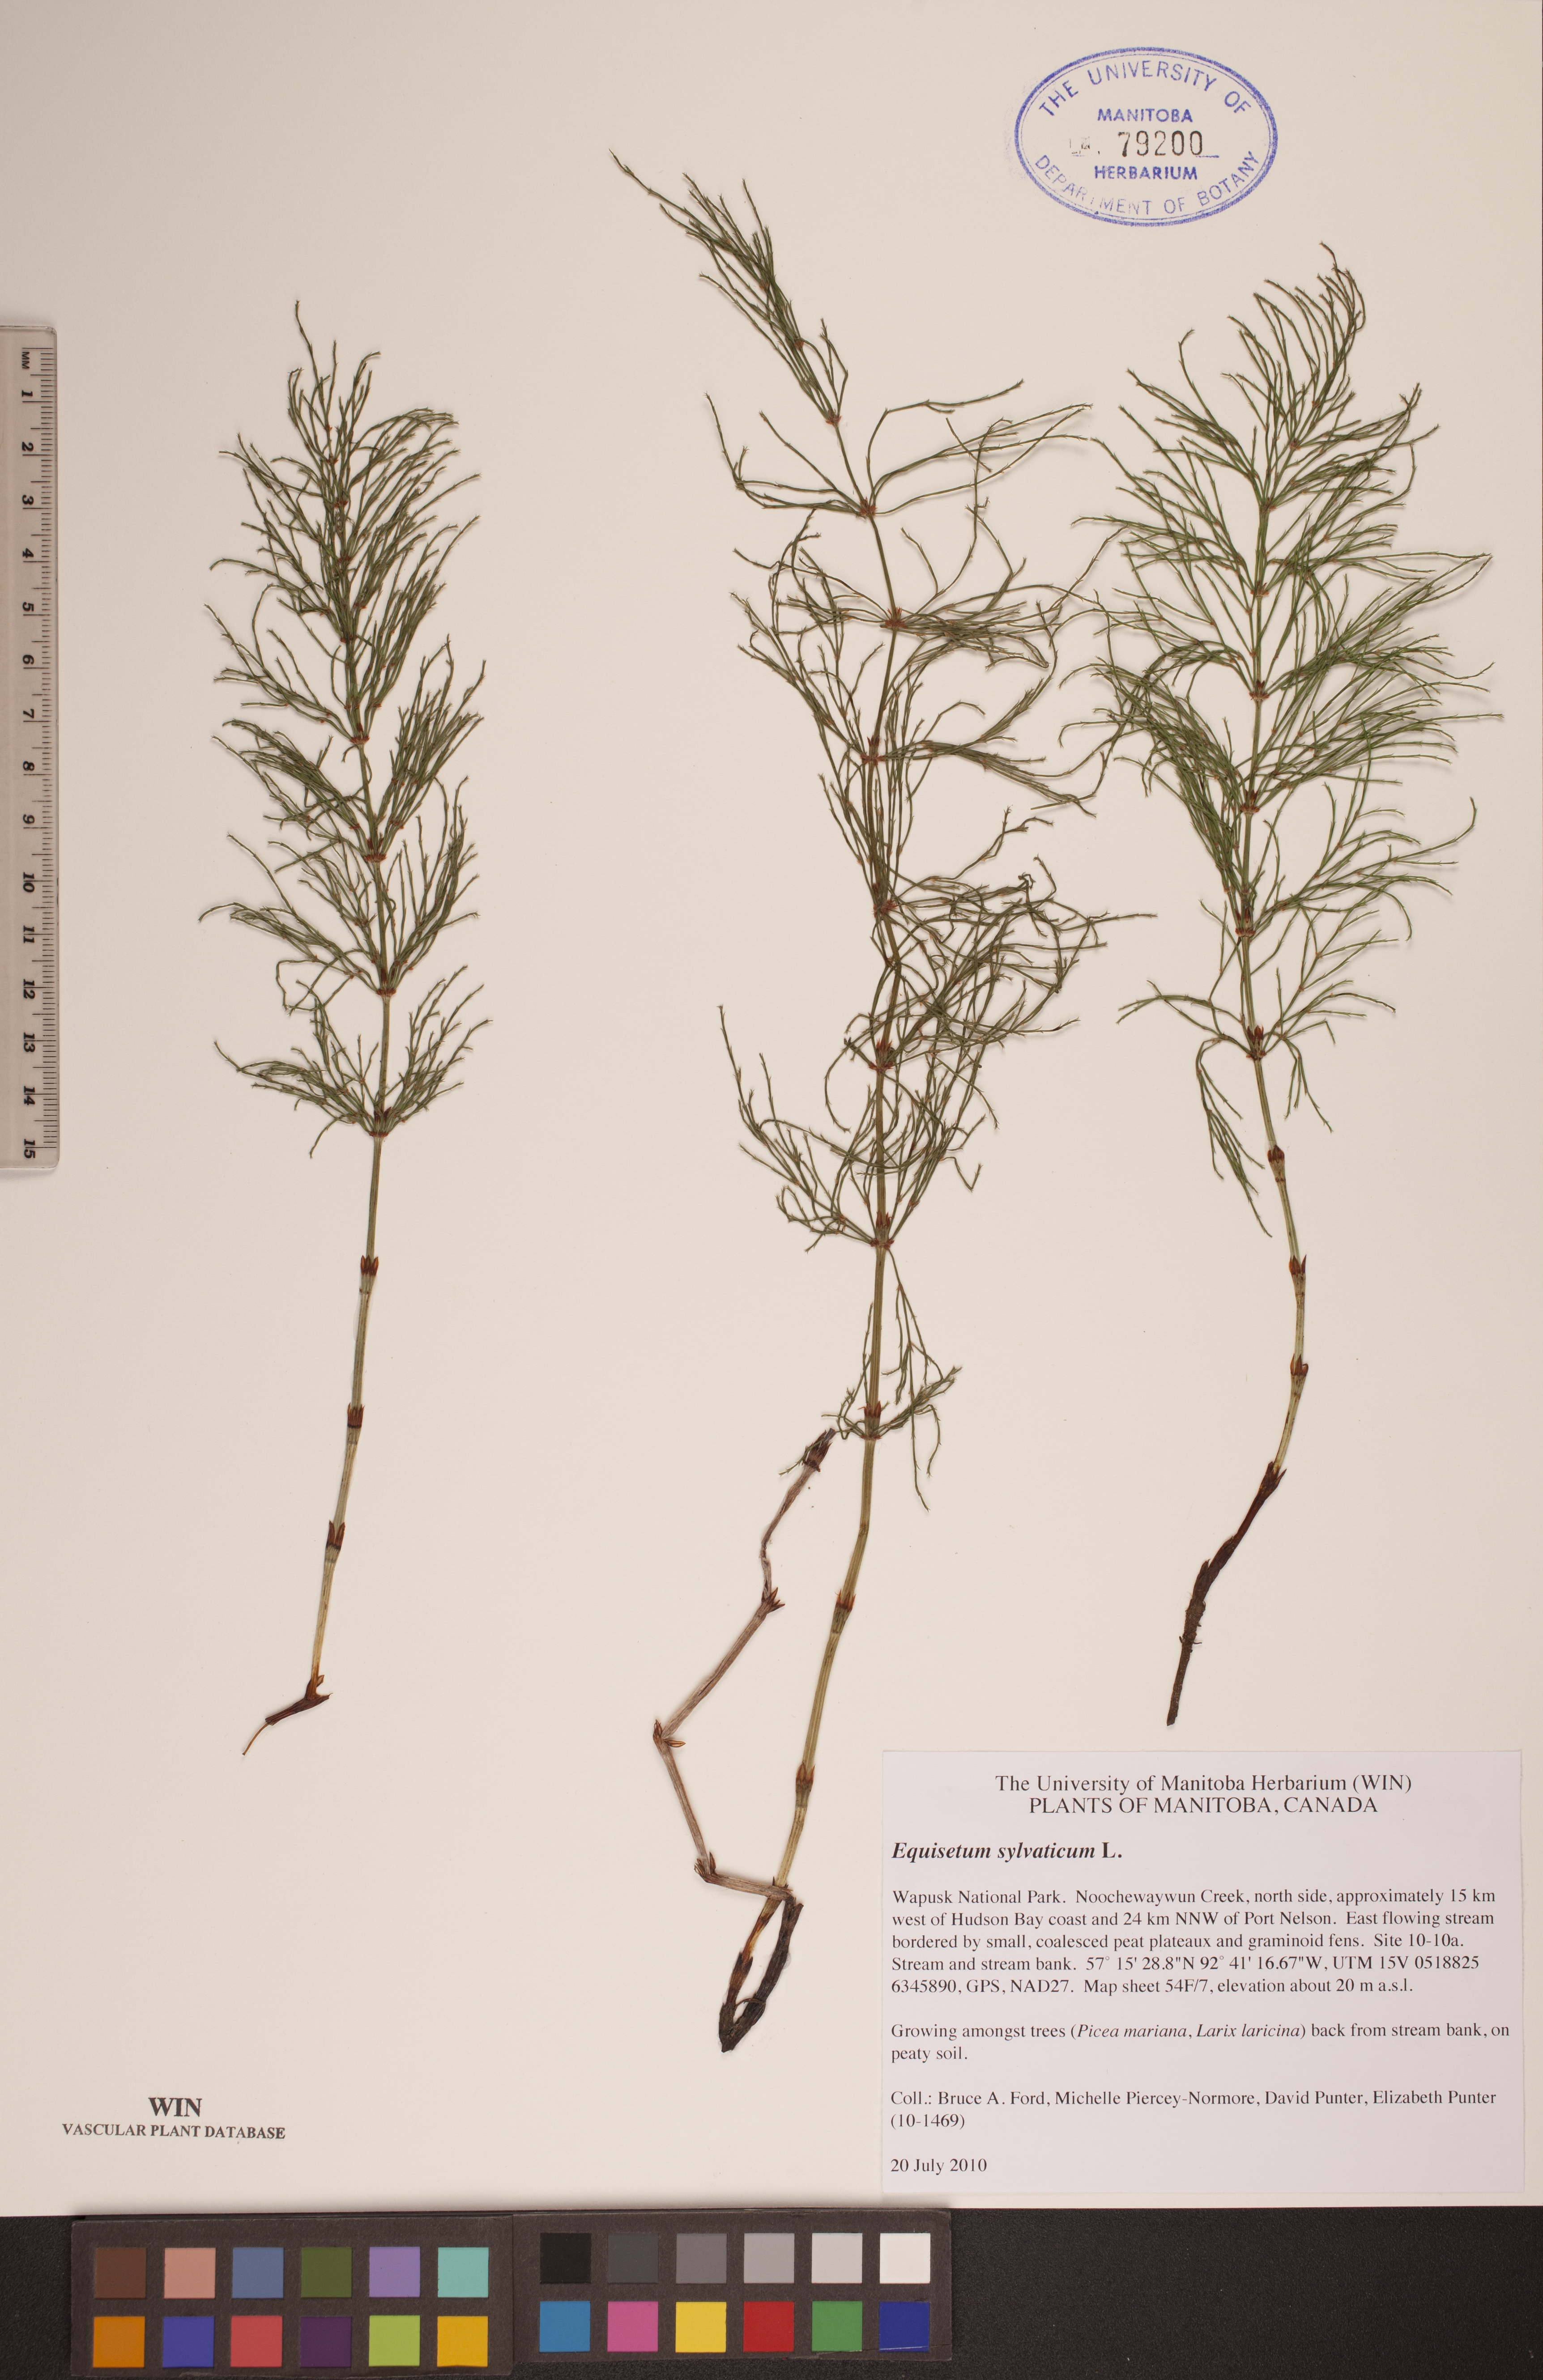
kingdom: Plantae
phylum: Tracheophyta
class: Polypodiopsida
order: Equisetales
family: Equisetaceae
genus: Equisetum
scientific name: Equisetum sylvaticum
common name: Wood horsetail
